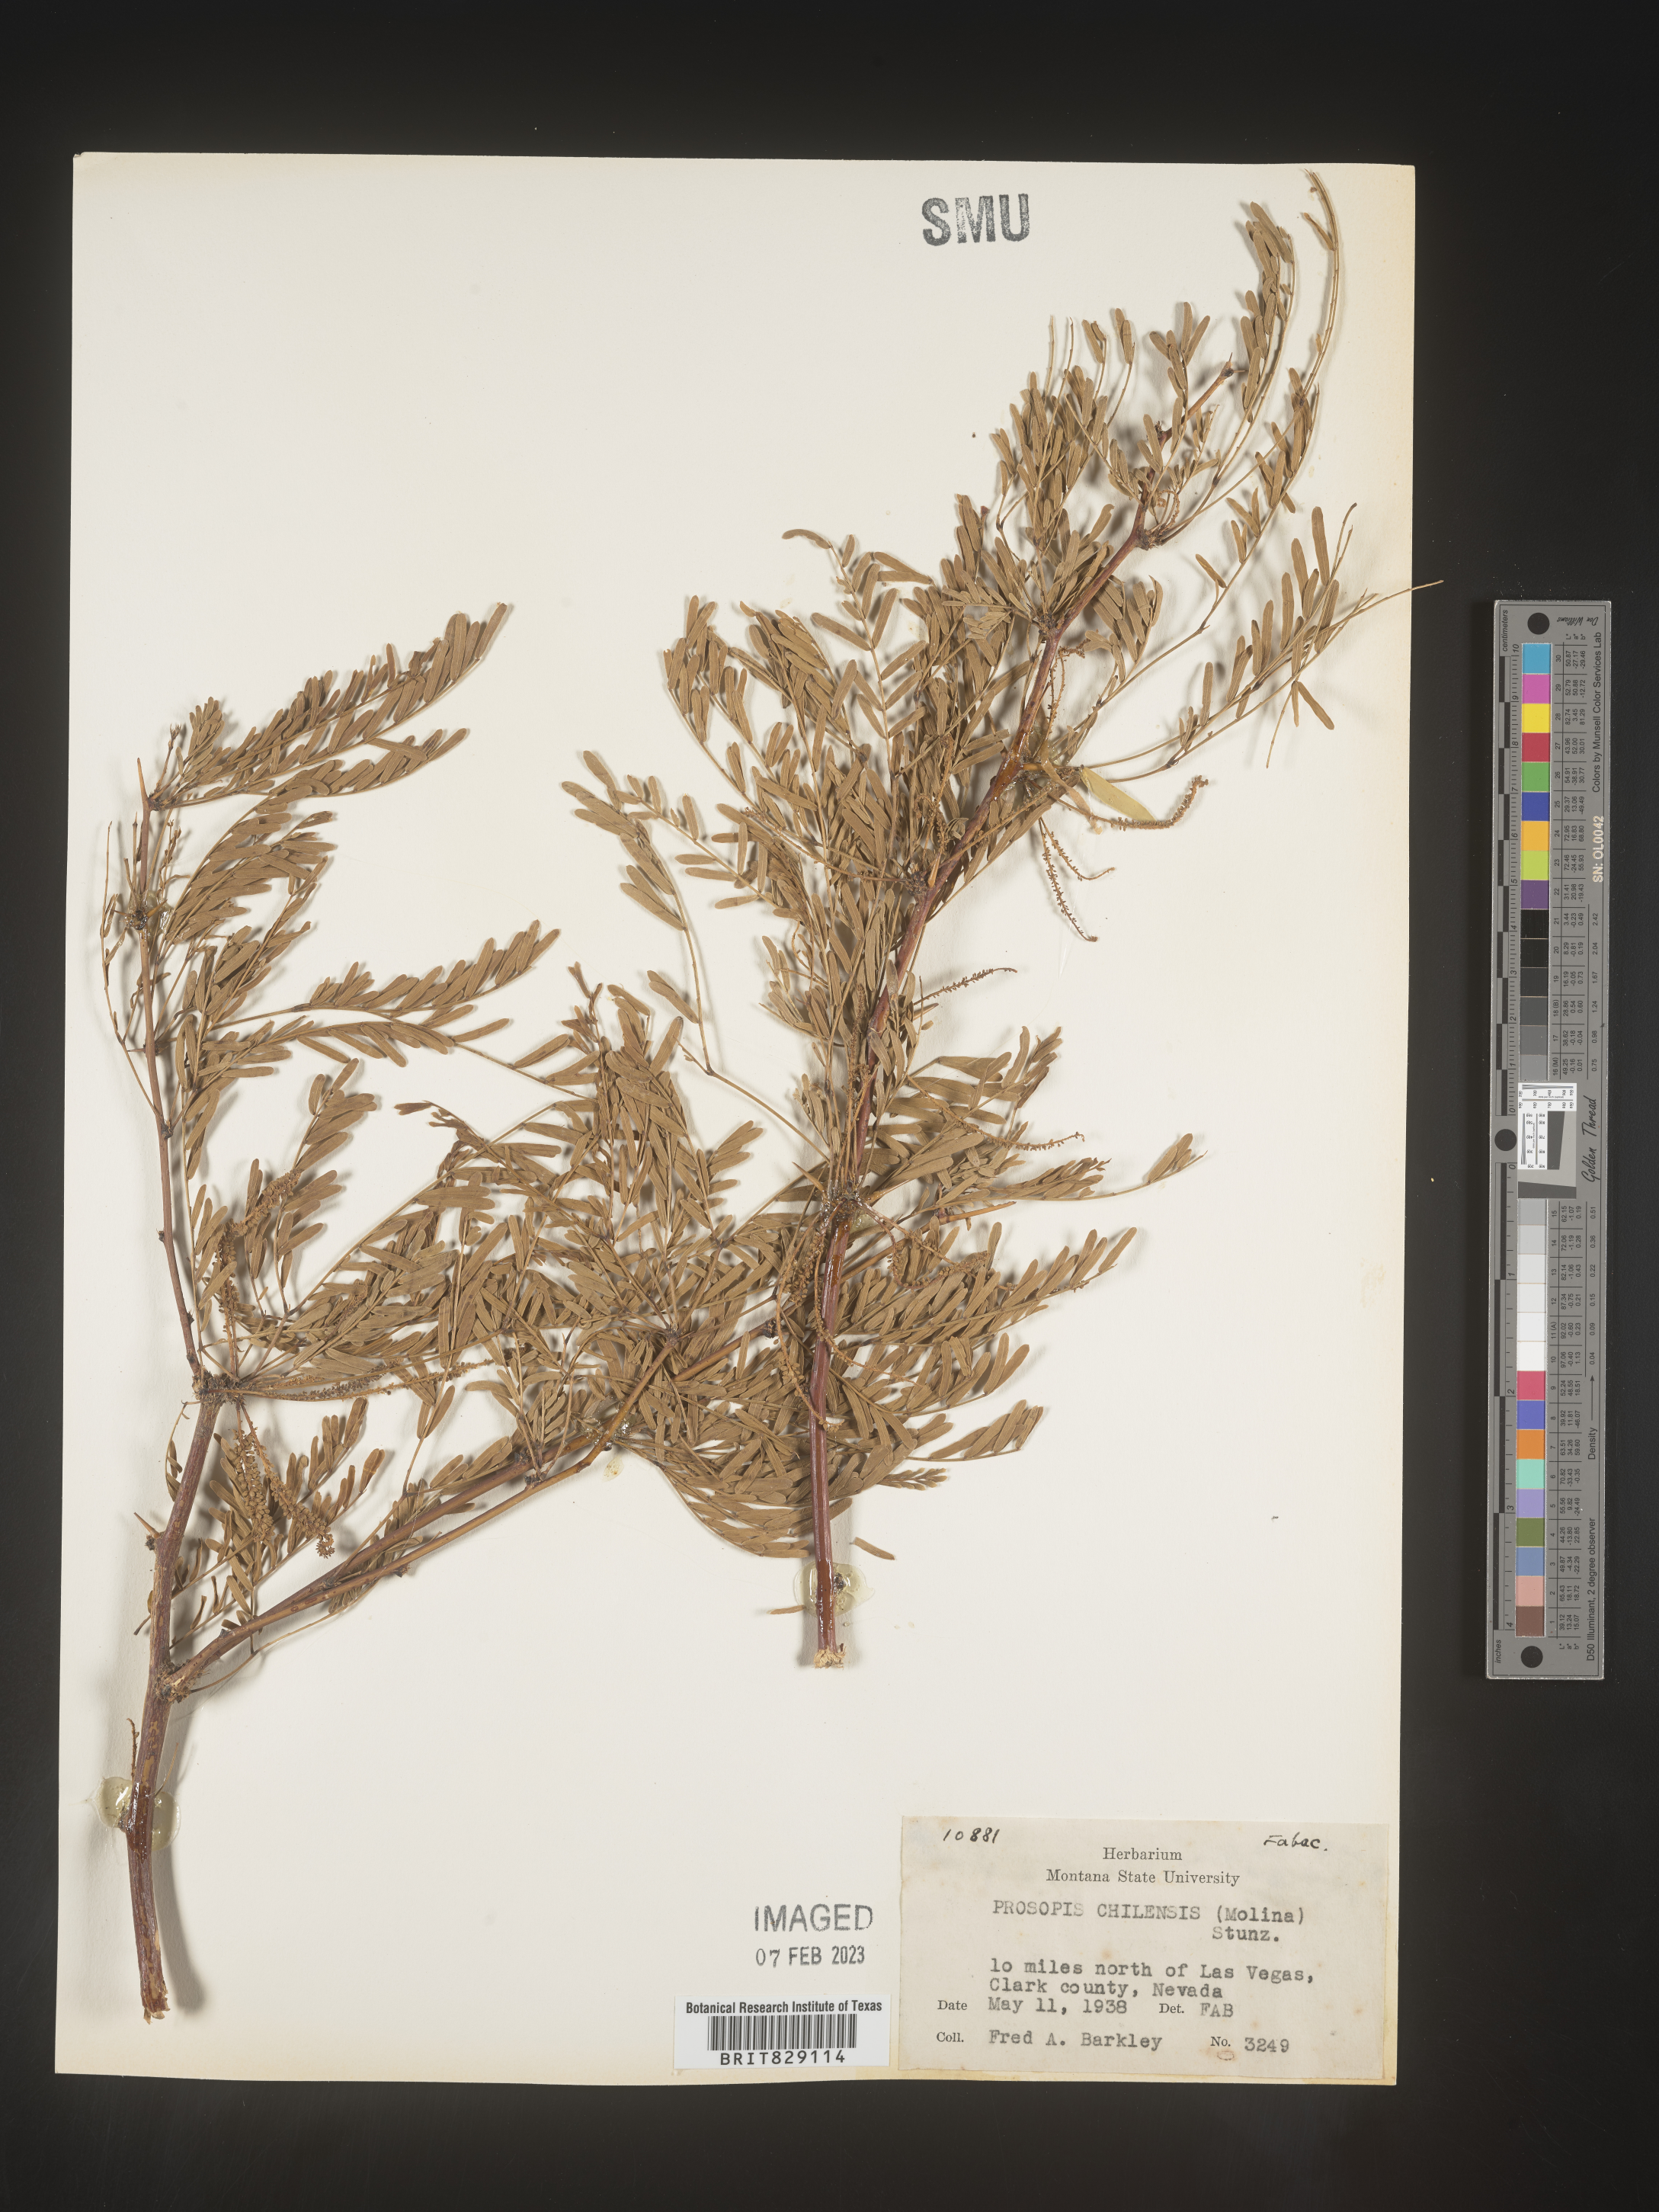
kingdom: Plantae
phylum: Tracheophyta
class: Magnoliopsida
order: Fabales
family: Fabaceae
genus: Prosopis
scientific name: Prosopis
